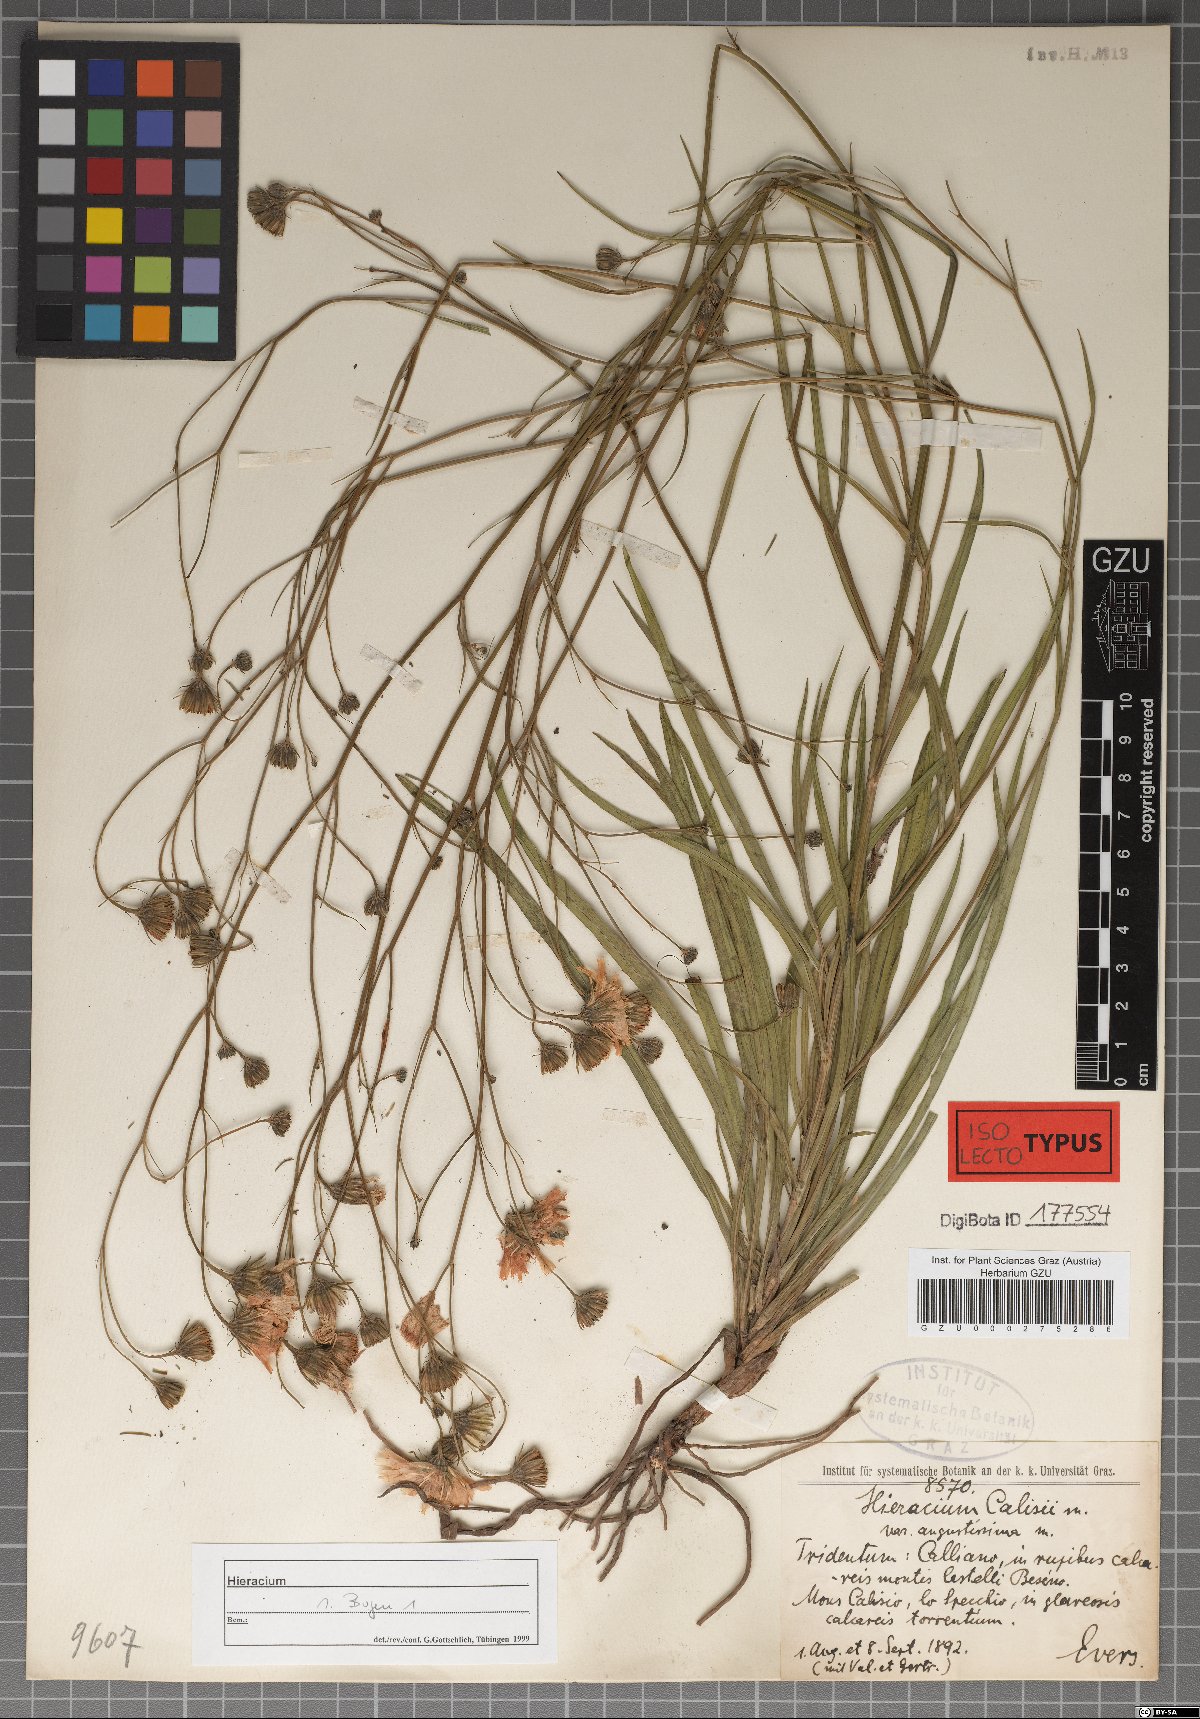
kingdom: Plantae
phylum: Tracheophyta
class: Magnoliopsida
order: Asterales
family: Asteraceae
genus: Hieracium
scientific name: Hieracium porrifolium
